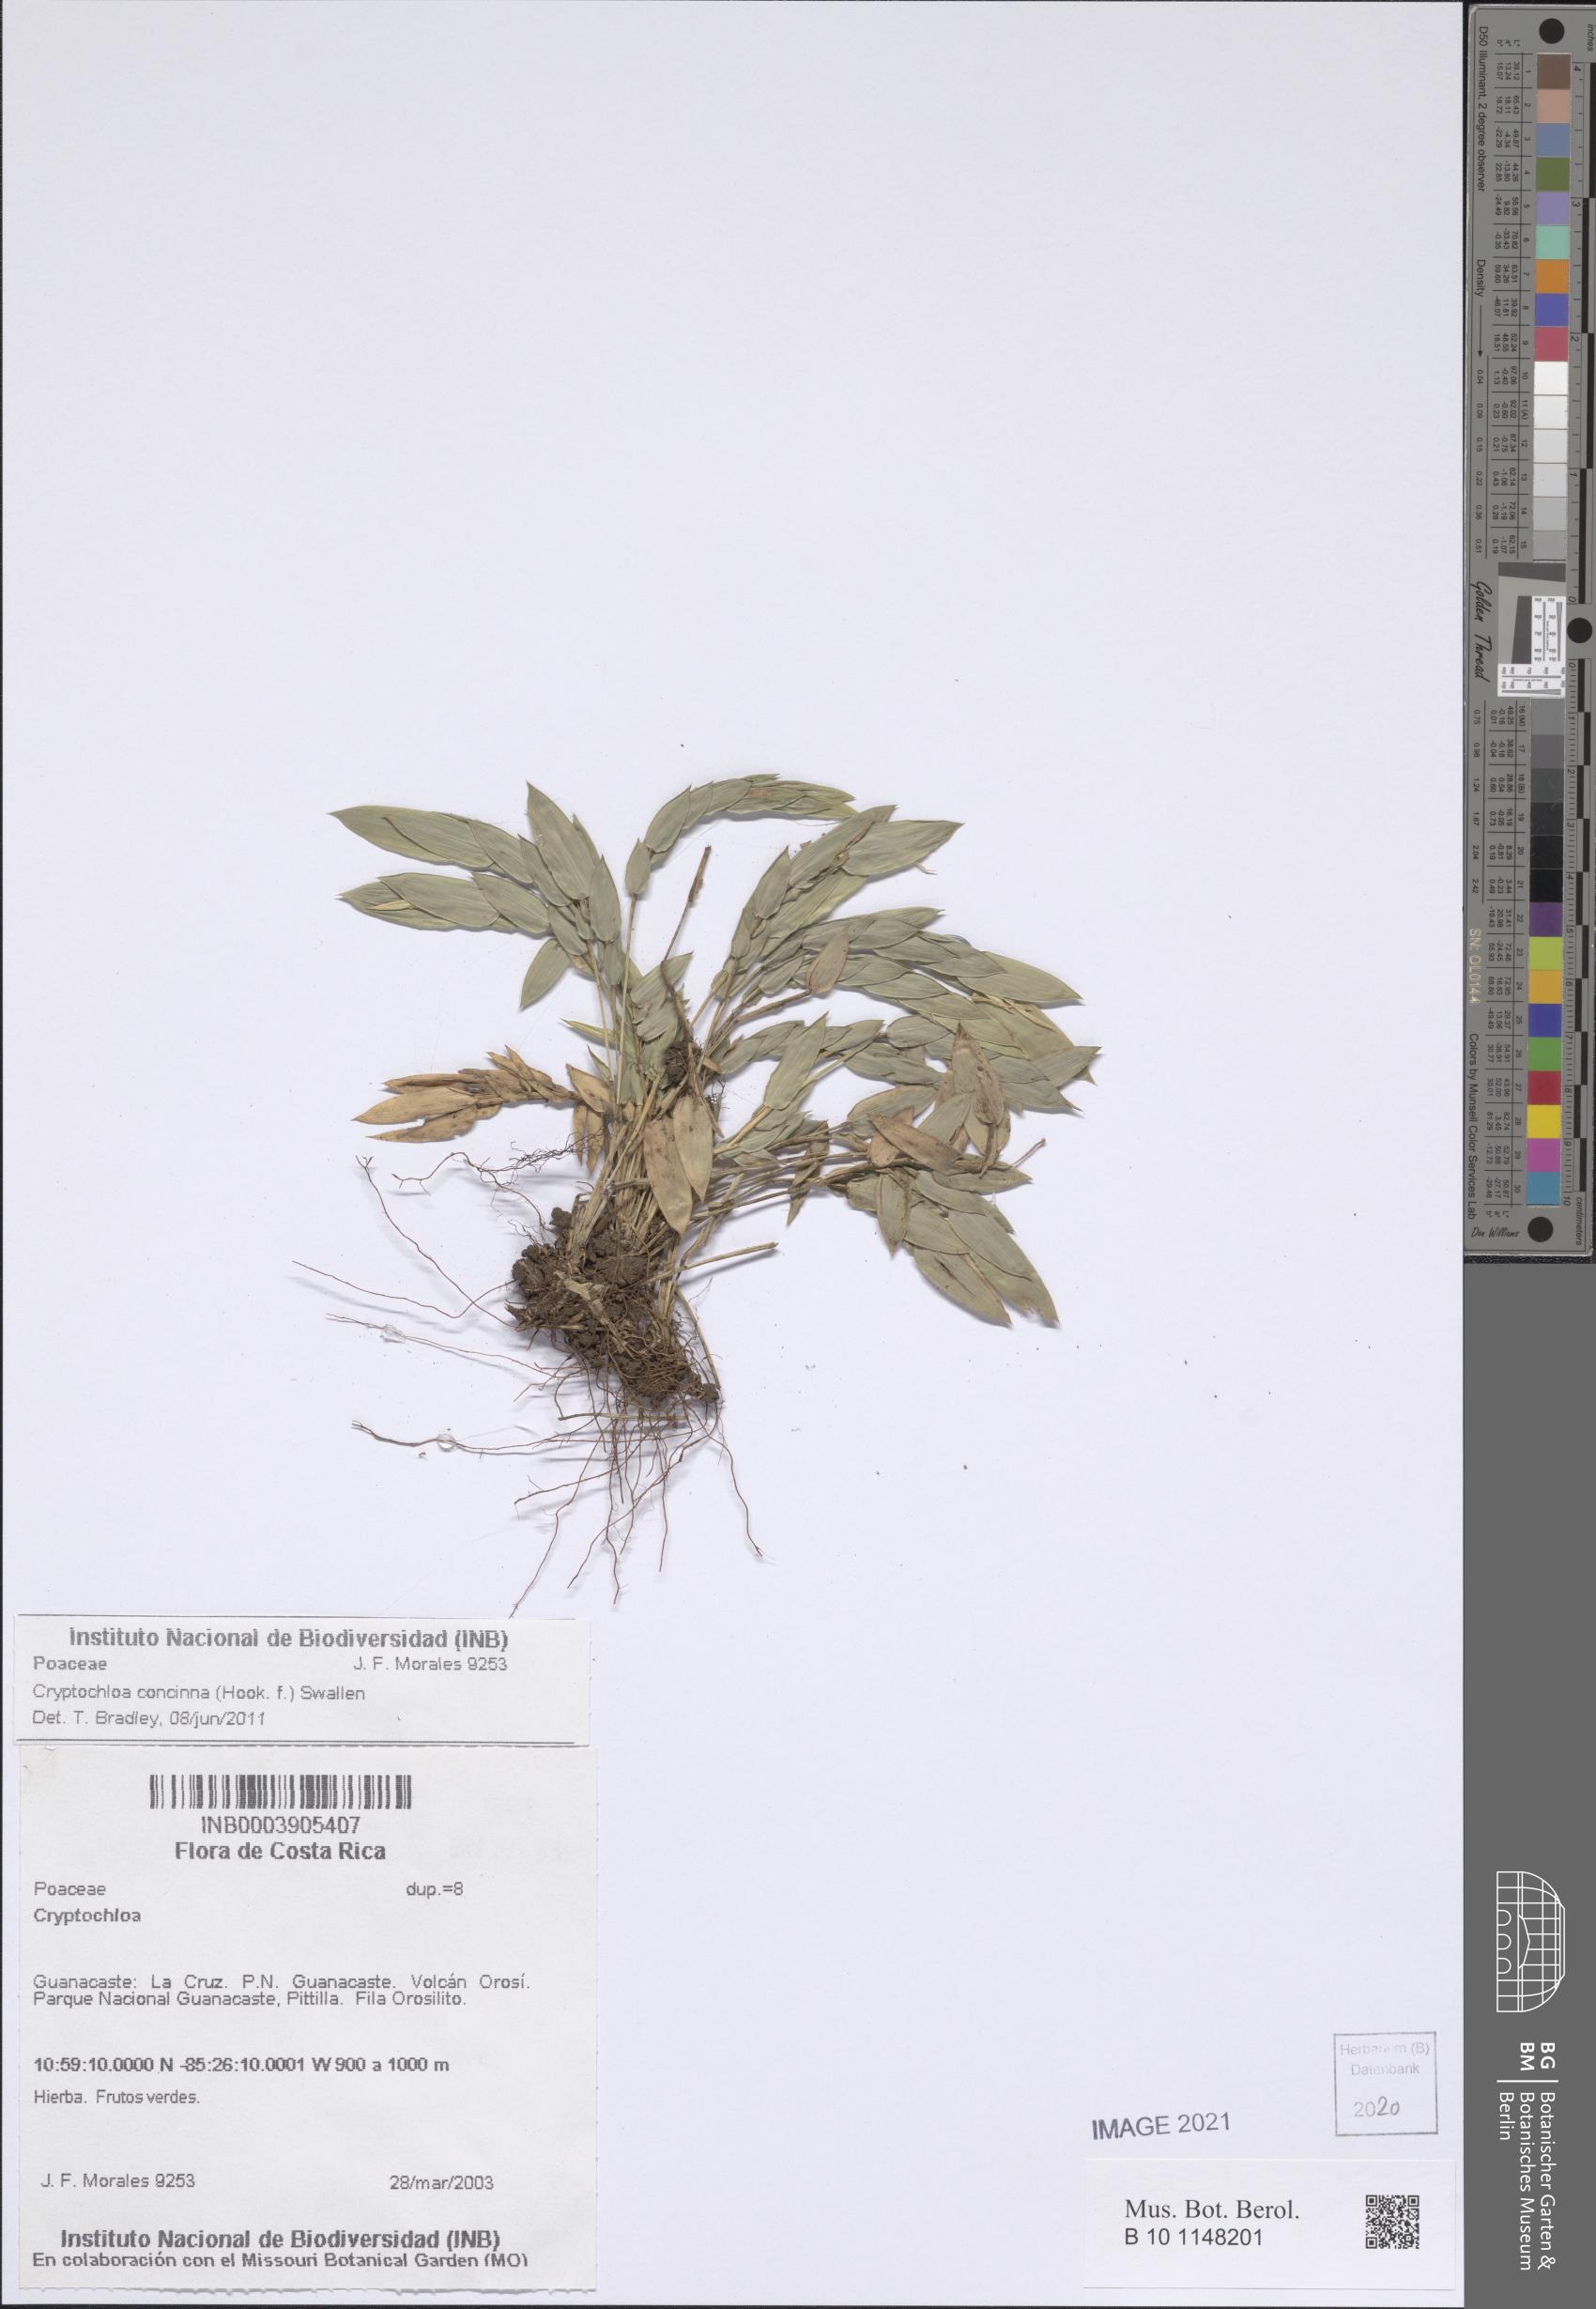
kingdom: Plantae
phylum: Tracheophyta
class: Liliopsida
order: Poales
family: Poaceae
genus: Cryptochloa
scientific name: Cryptochloa concinna
